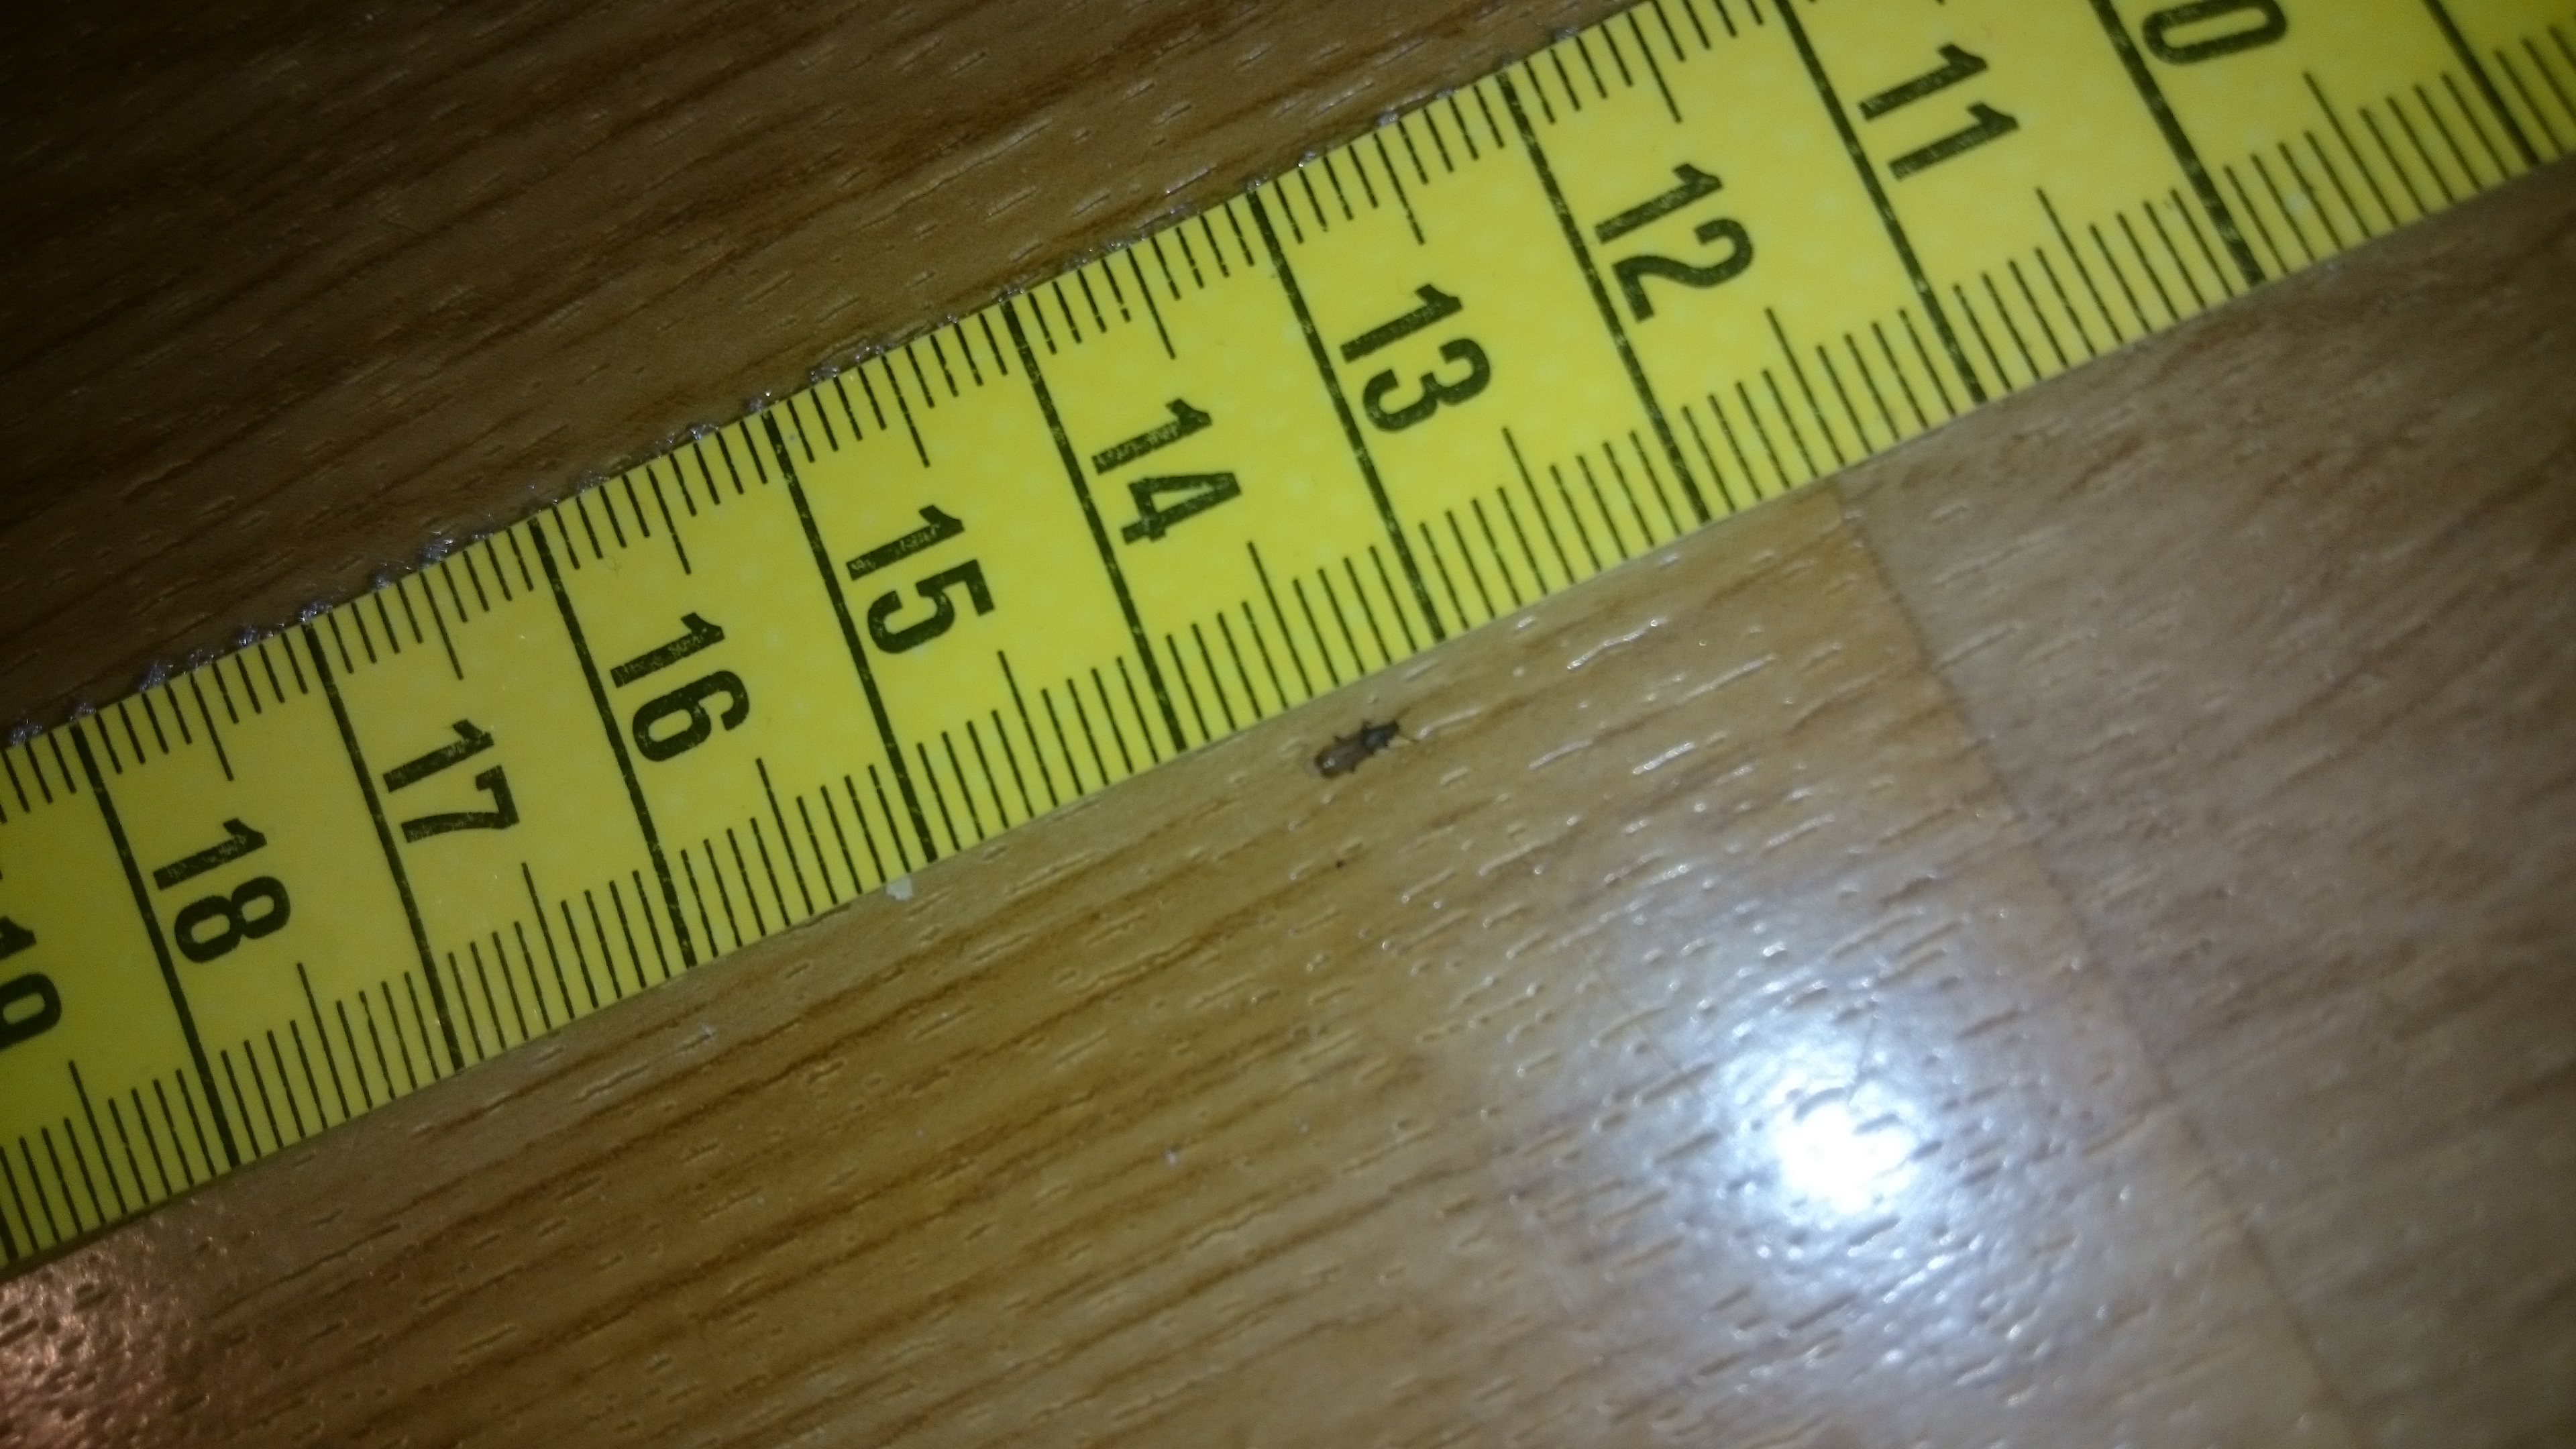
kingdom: Animalia
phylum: Arthropoda
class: Insecta
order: Coleoptera
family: Silvanidae
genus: Oryzaephilus
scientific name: Oryzaephilus surinamensis
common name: Sawtoothed grain beetle
